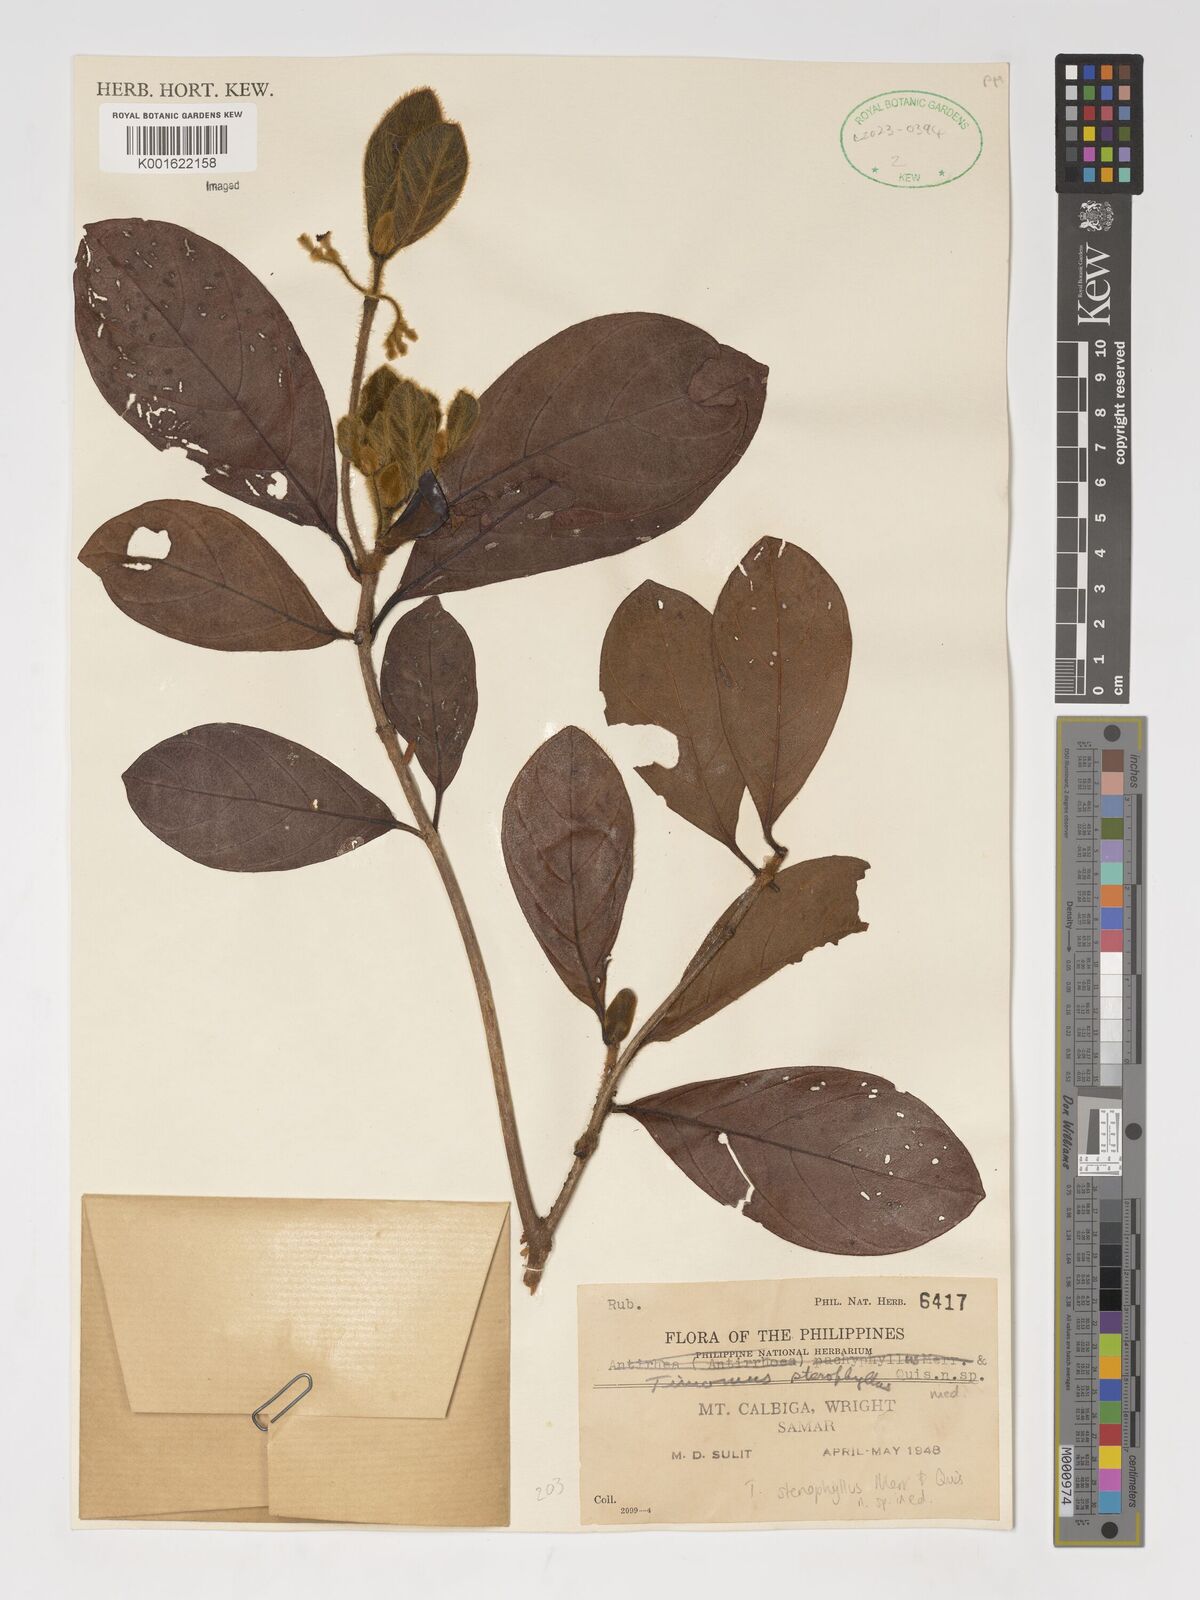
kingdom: Plantae
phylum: Tracheophyta
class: Magnoliopsida
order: Gentianales
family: Rubiaceae
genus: Timonius
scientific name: Timonius
